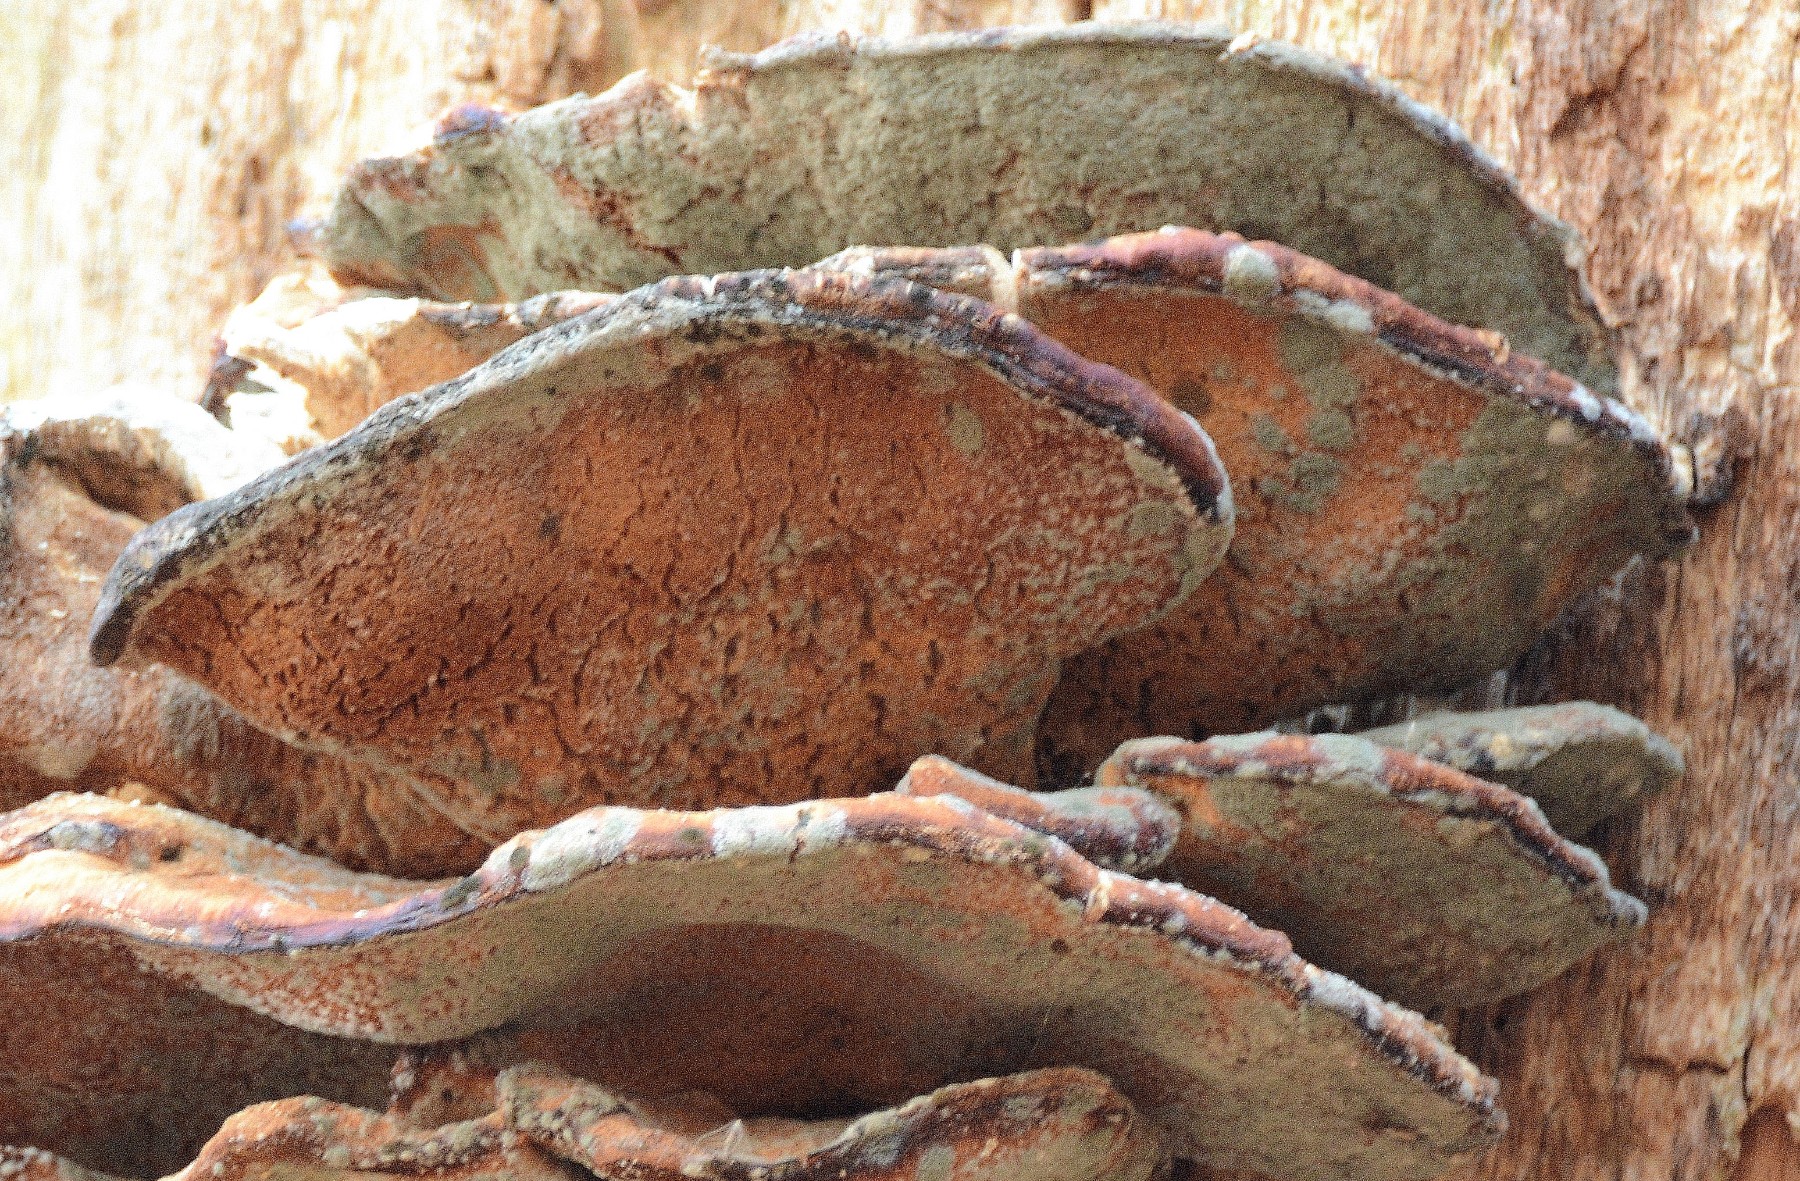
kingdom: Fungi
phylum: Basidiomycota
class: Agaricomycetes
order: Polyporales
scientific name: Polyporales
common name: poresvampordenen
